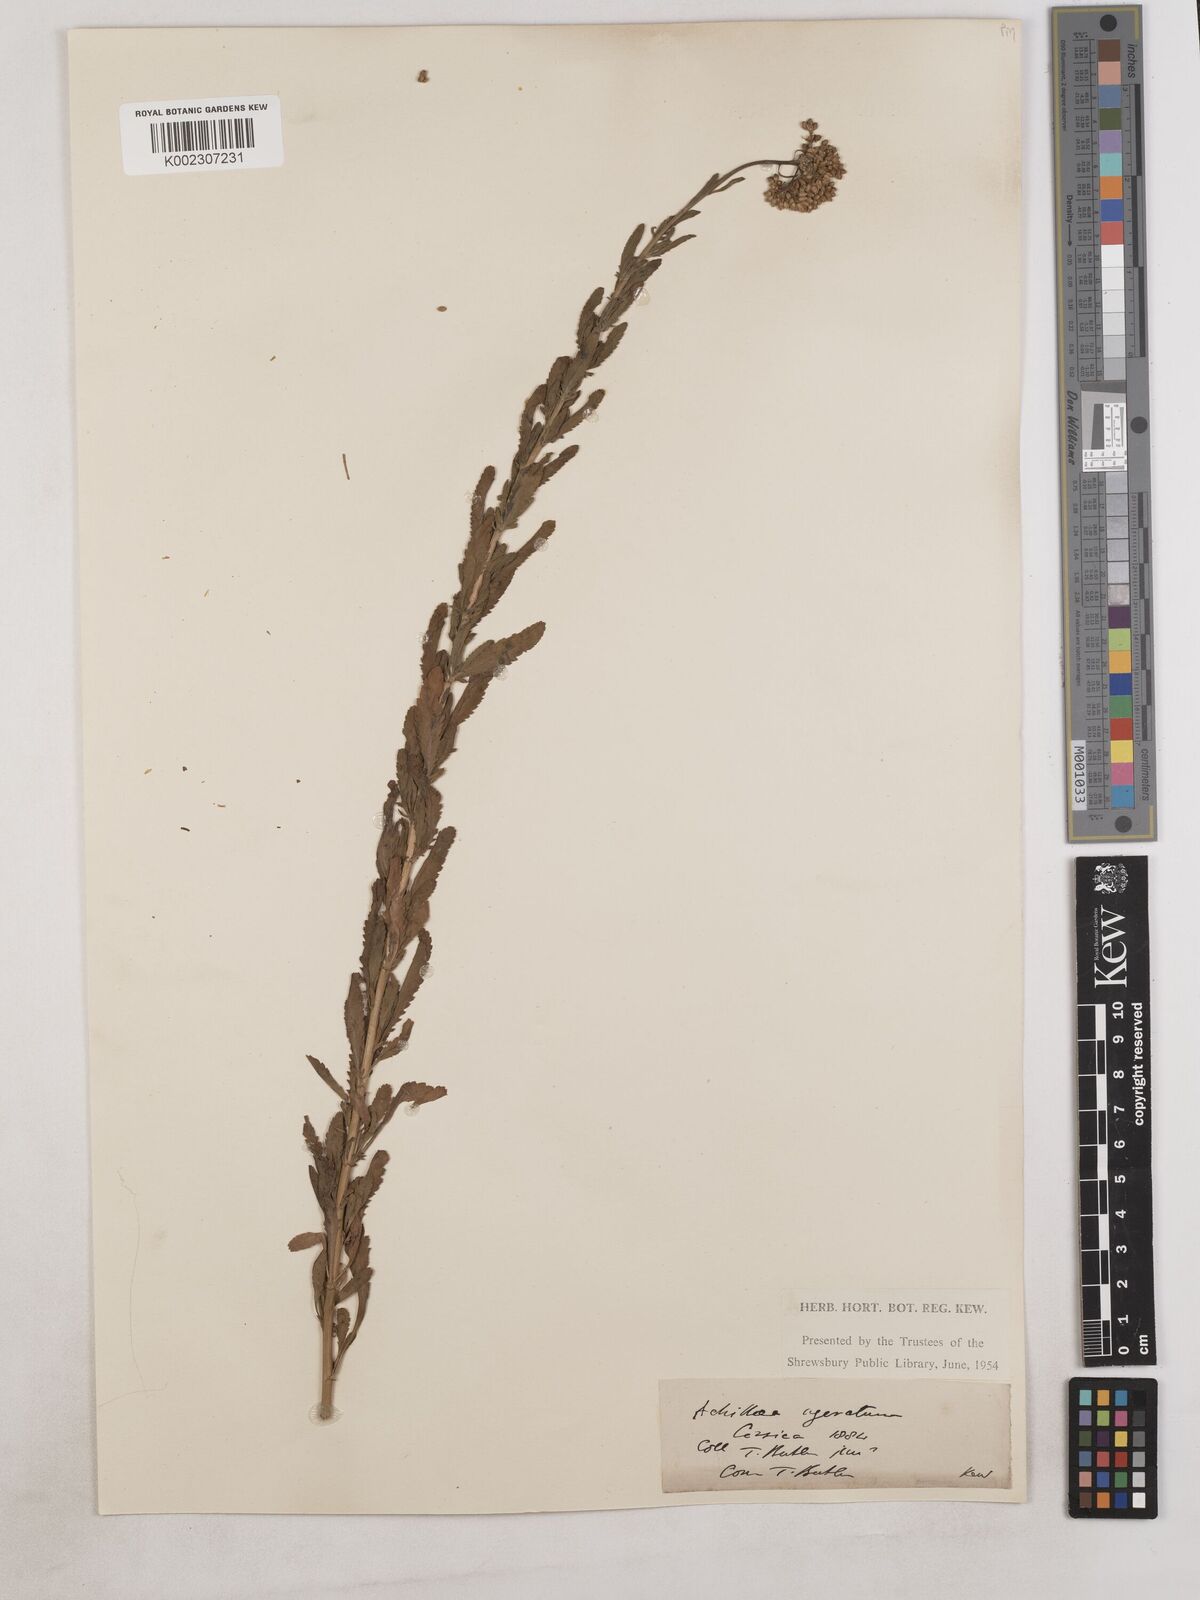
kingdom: Plantae
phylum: Tracheophyta
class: Magnoliopsida
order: Asterales
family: Asteraceae
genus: Achillea
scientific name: Achillea ageratum
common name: Sweet-nancy
